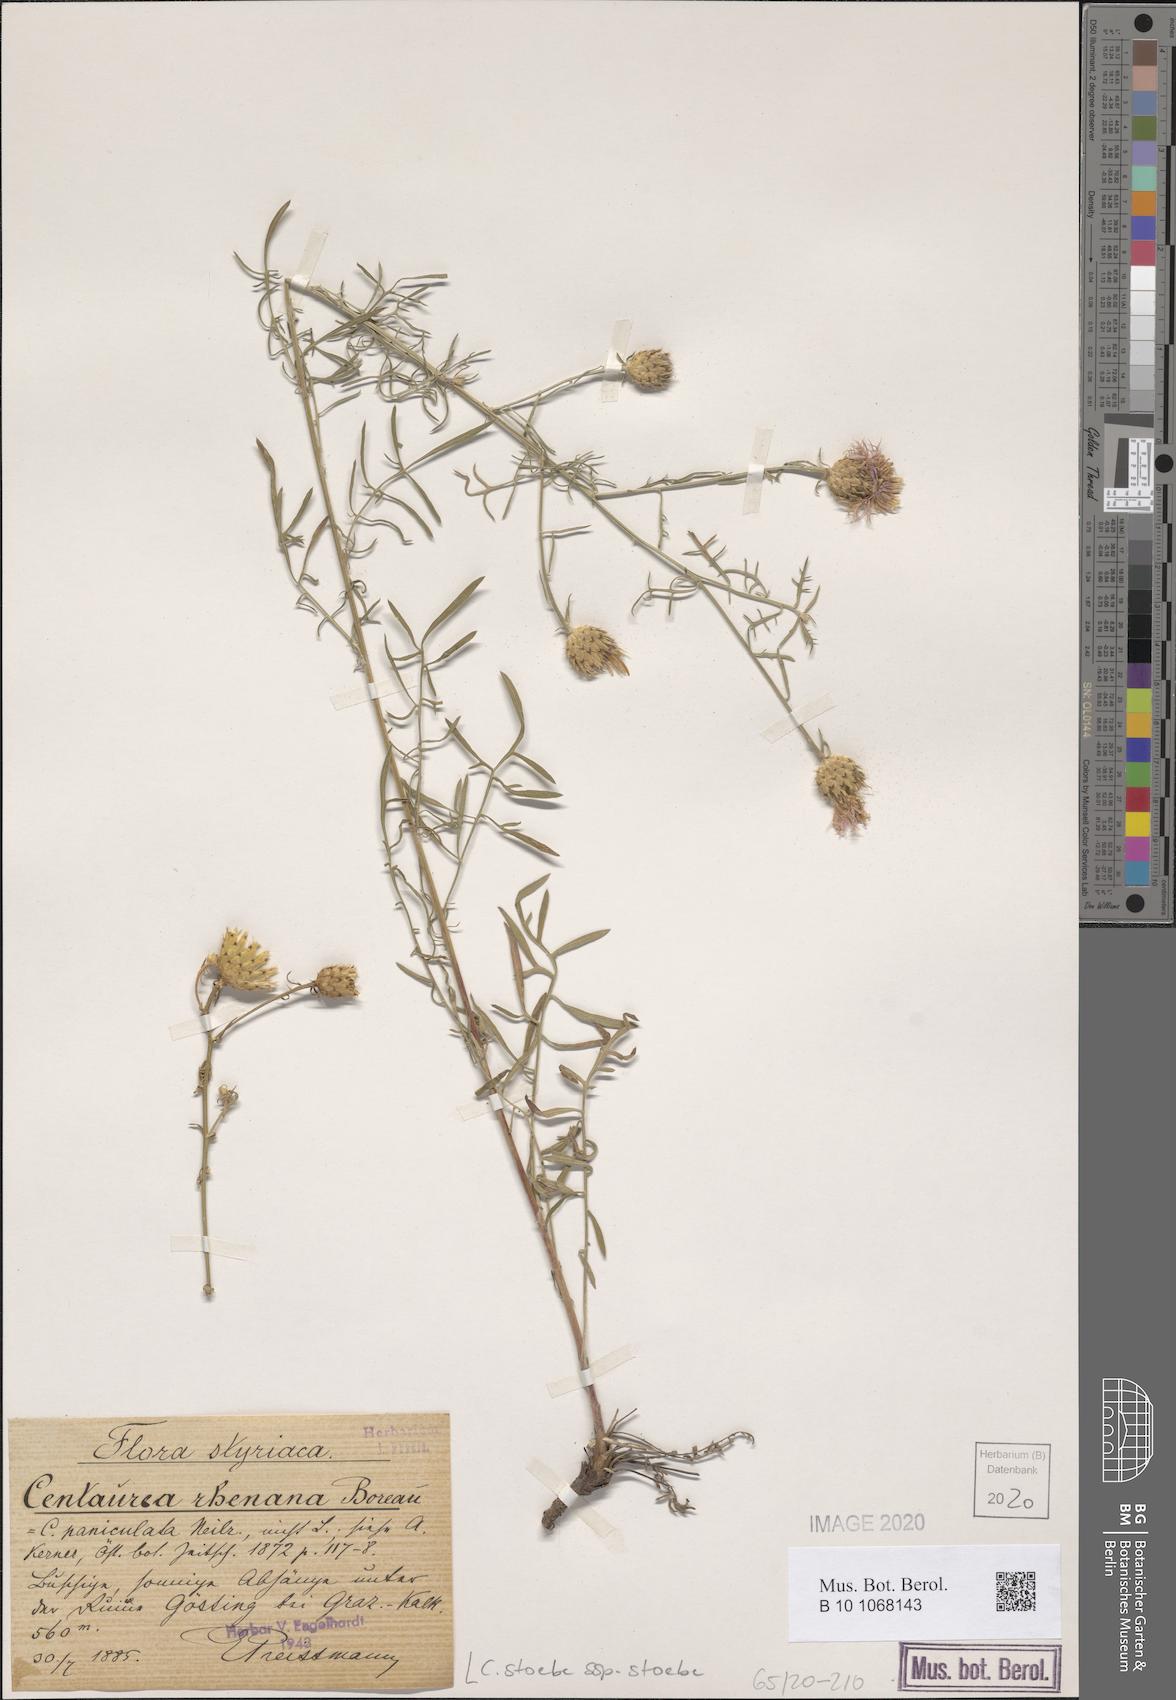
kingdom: Plantae
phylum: Tracheophyta
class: Magnoliopsida
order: Asterales
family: Asteraceae
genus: Centaurea
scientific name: Centaurea stoebe
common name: Spotted knapweed
